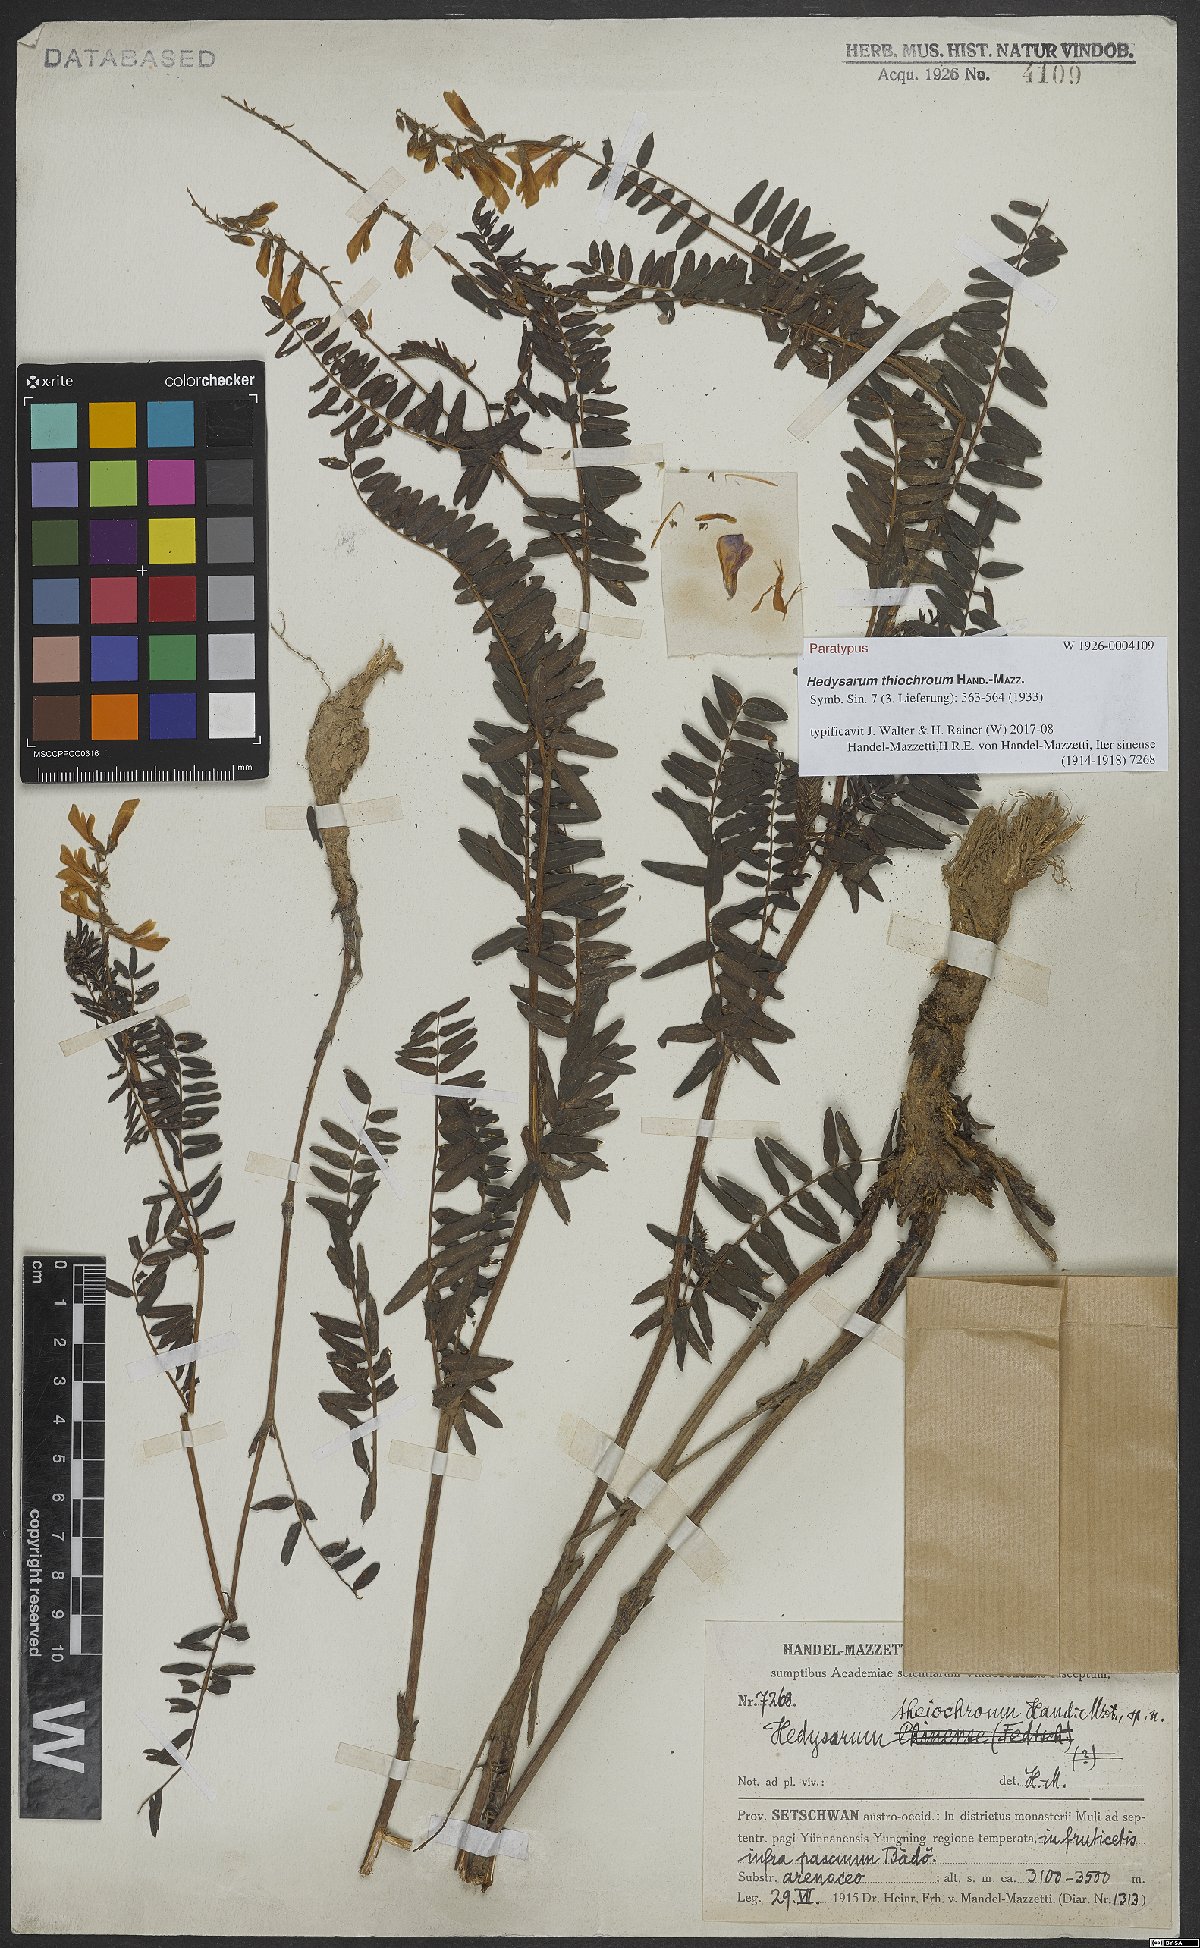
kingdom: Plantae
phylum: Tracheophyta
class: Magnoliopsida
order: Fabales
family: Fabaceae
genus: Hedysarum
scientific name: Hedysarum thiochroum
